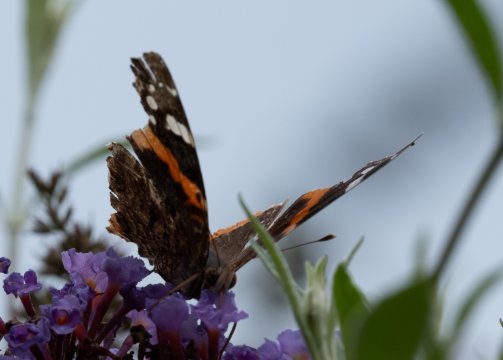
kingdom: Animalia
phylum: Arthropoda
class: Insecta
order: Lepidoptera
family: Nymphalidae
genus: Vanessa
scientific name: Vanessa atalanta
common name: Red Admiral
